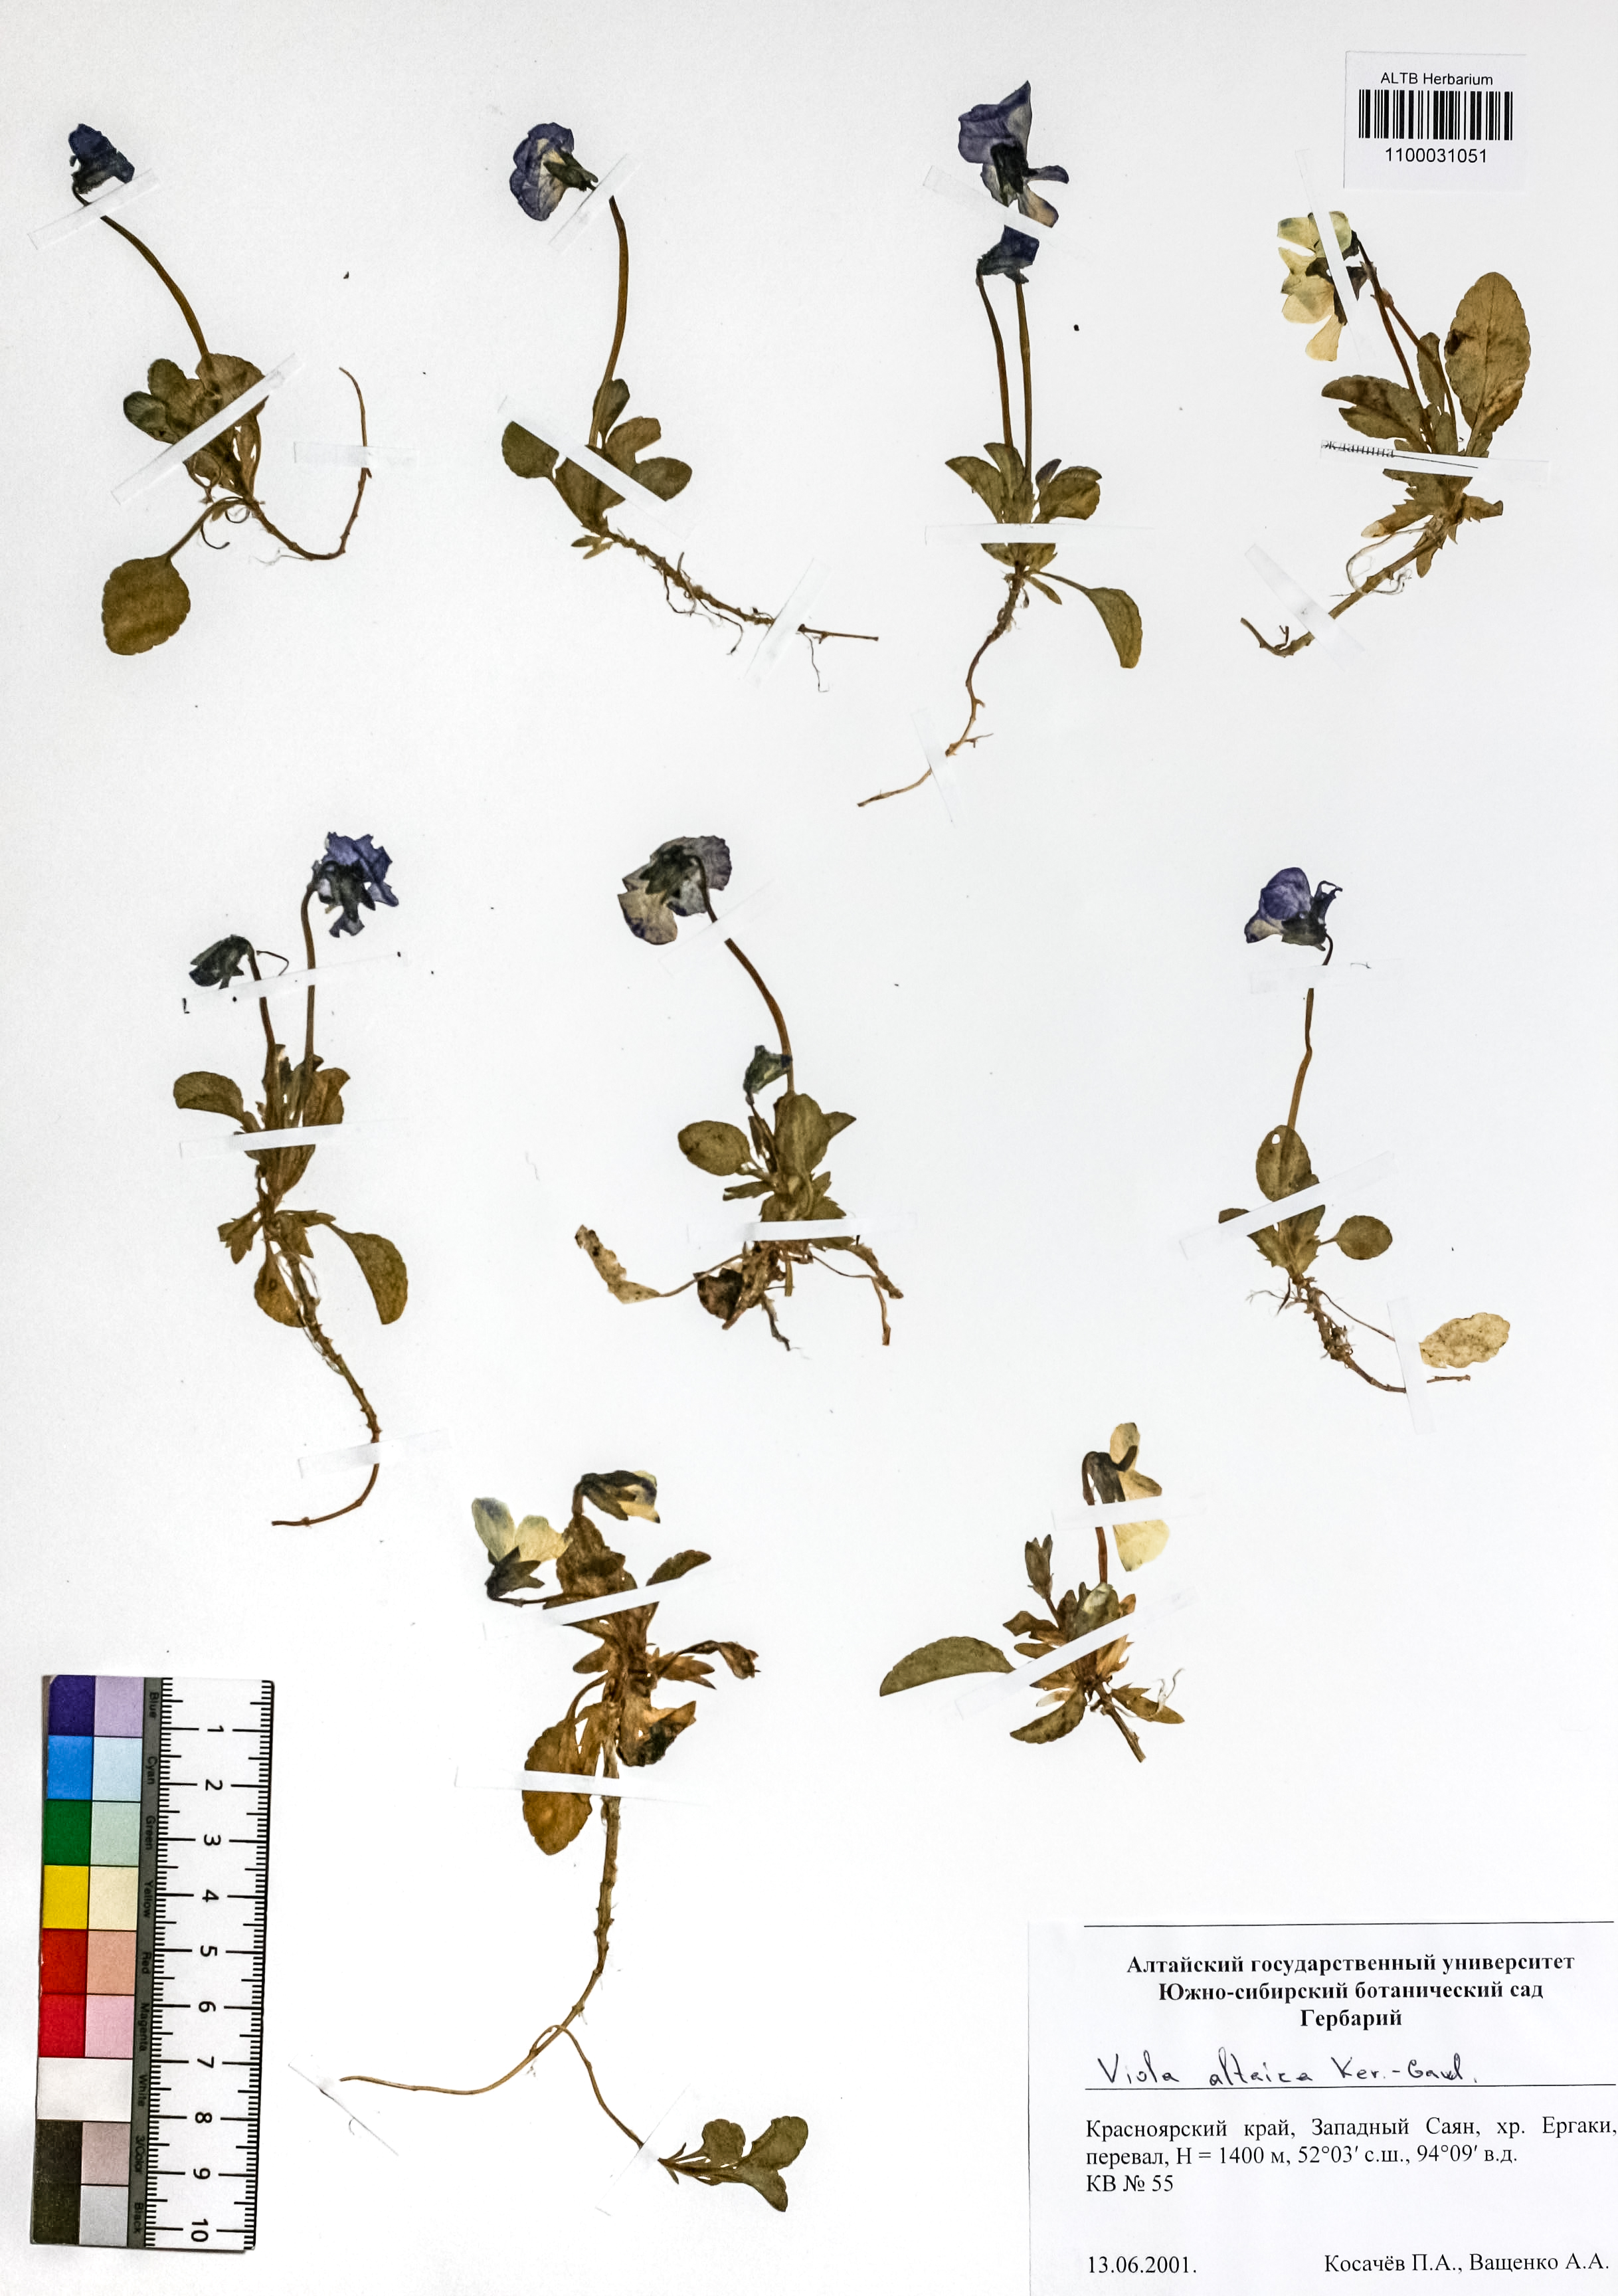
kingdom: Plantae
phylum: Tracheophyta
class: Magnoliopsida
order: Malpighiales
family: Violaceae
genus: Viola
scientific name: Viola altaica
